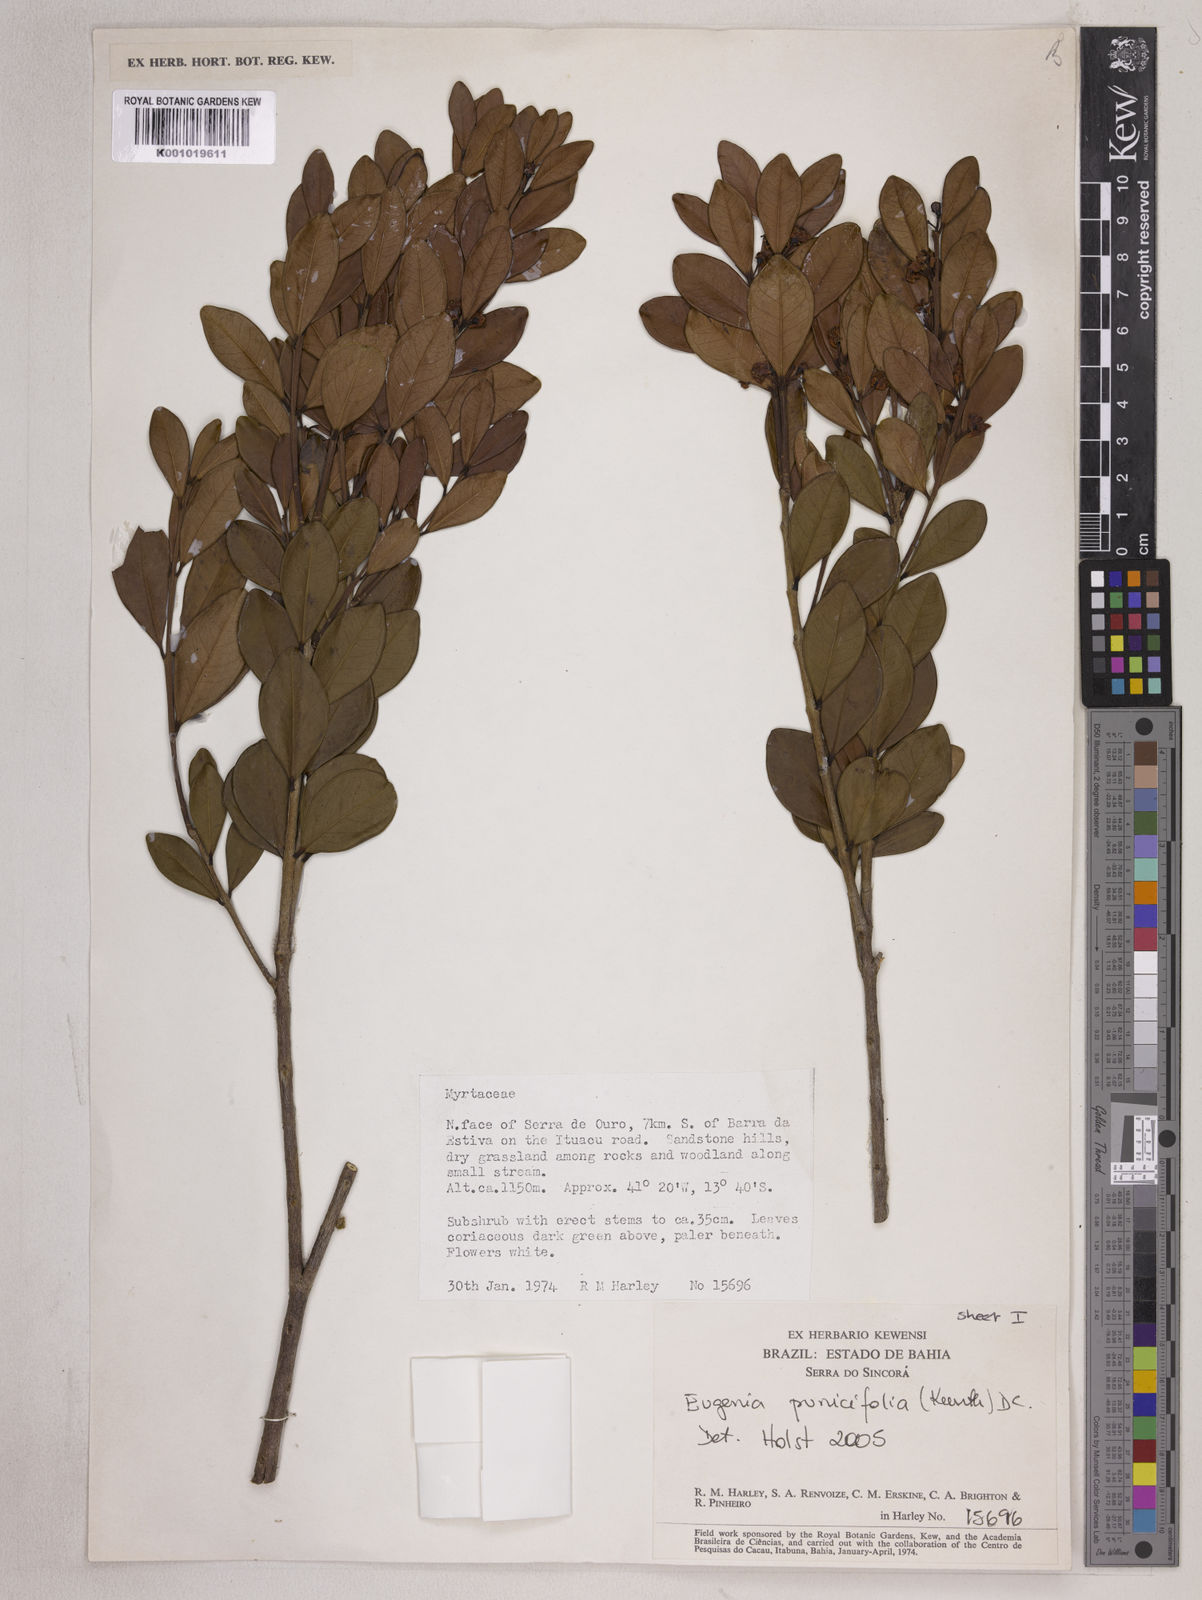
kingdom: Plantae
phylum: Tracheophyta
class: Magnoliopsida
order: Myrtales
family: Myrtaceae
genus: Eugenia
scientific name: Eugenia punicifolia
